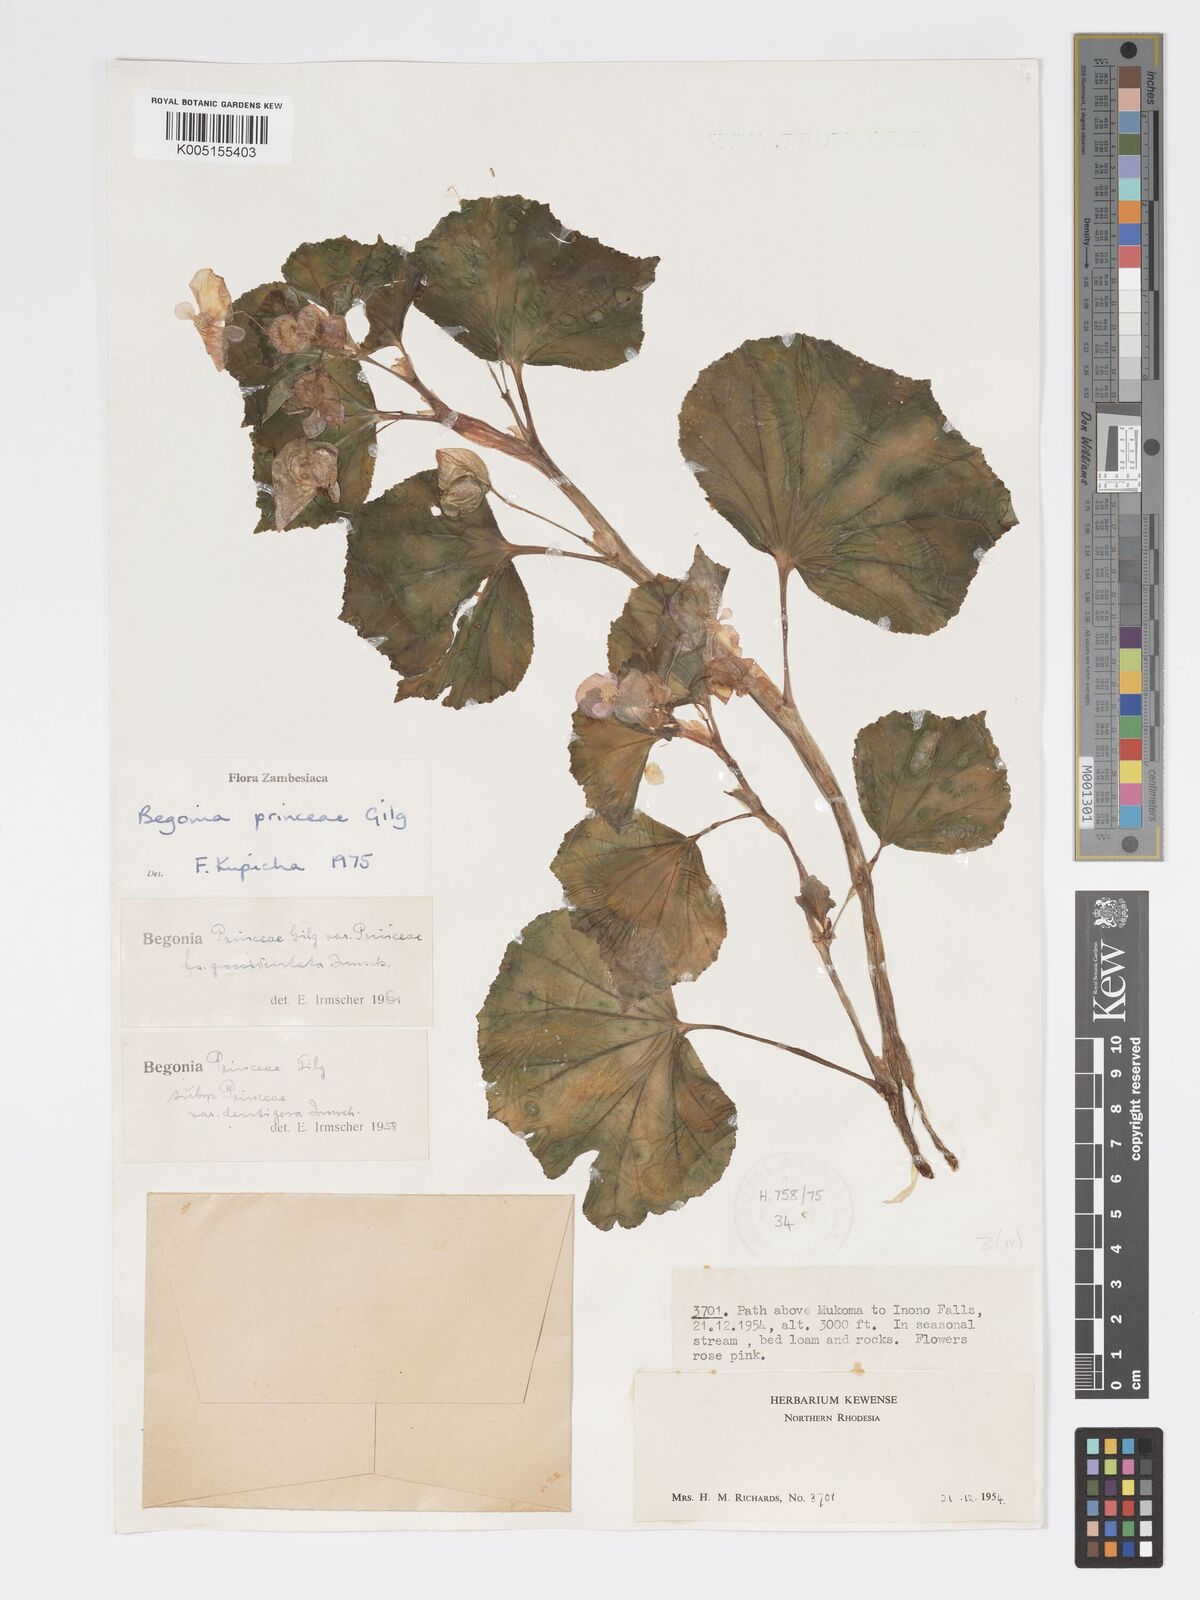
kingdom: Plantae
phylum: Tracheophyta
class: Magnoliopsida
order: Cucurbitales
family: Begoniaceae
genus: Begonia
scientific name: Begonia princeae
